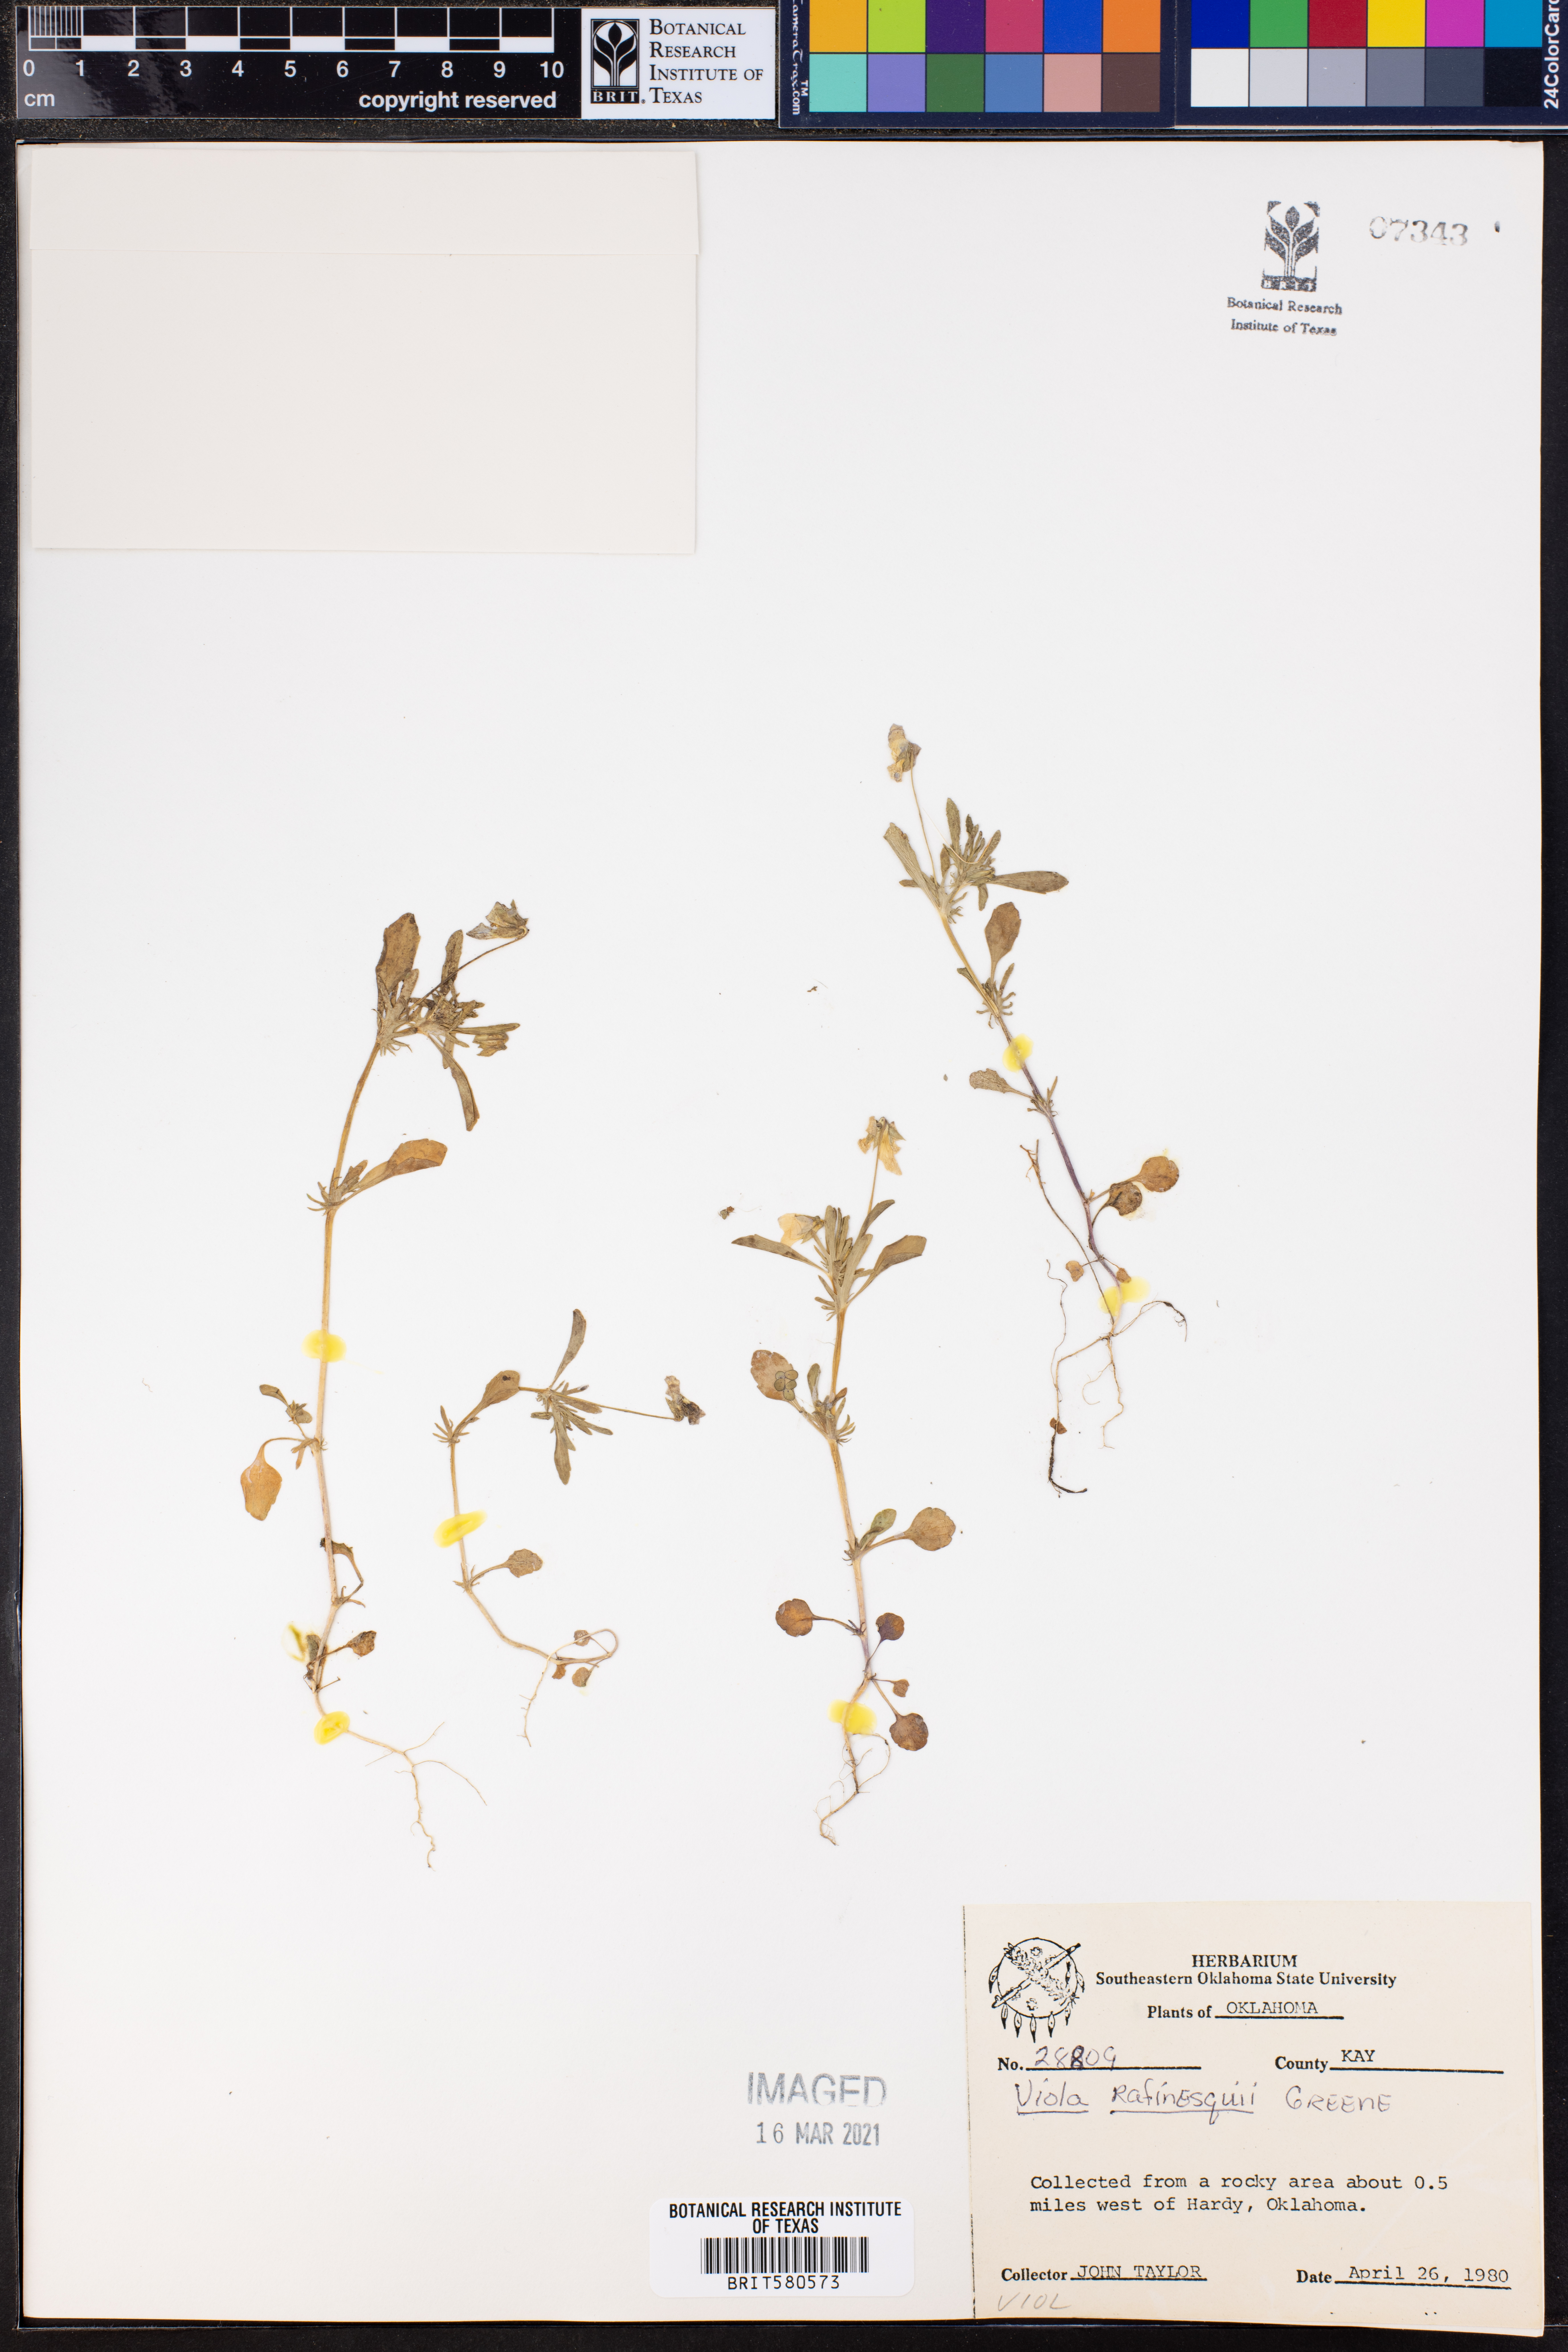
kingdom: Plantae
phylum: Tracheophyta
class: Magnoliopsida
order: Malpighiales
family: Violaceae
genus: Viola
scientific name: Viola rafinesquei
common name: American field pansy
